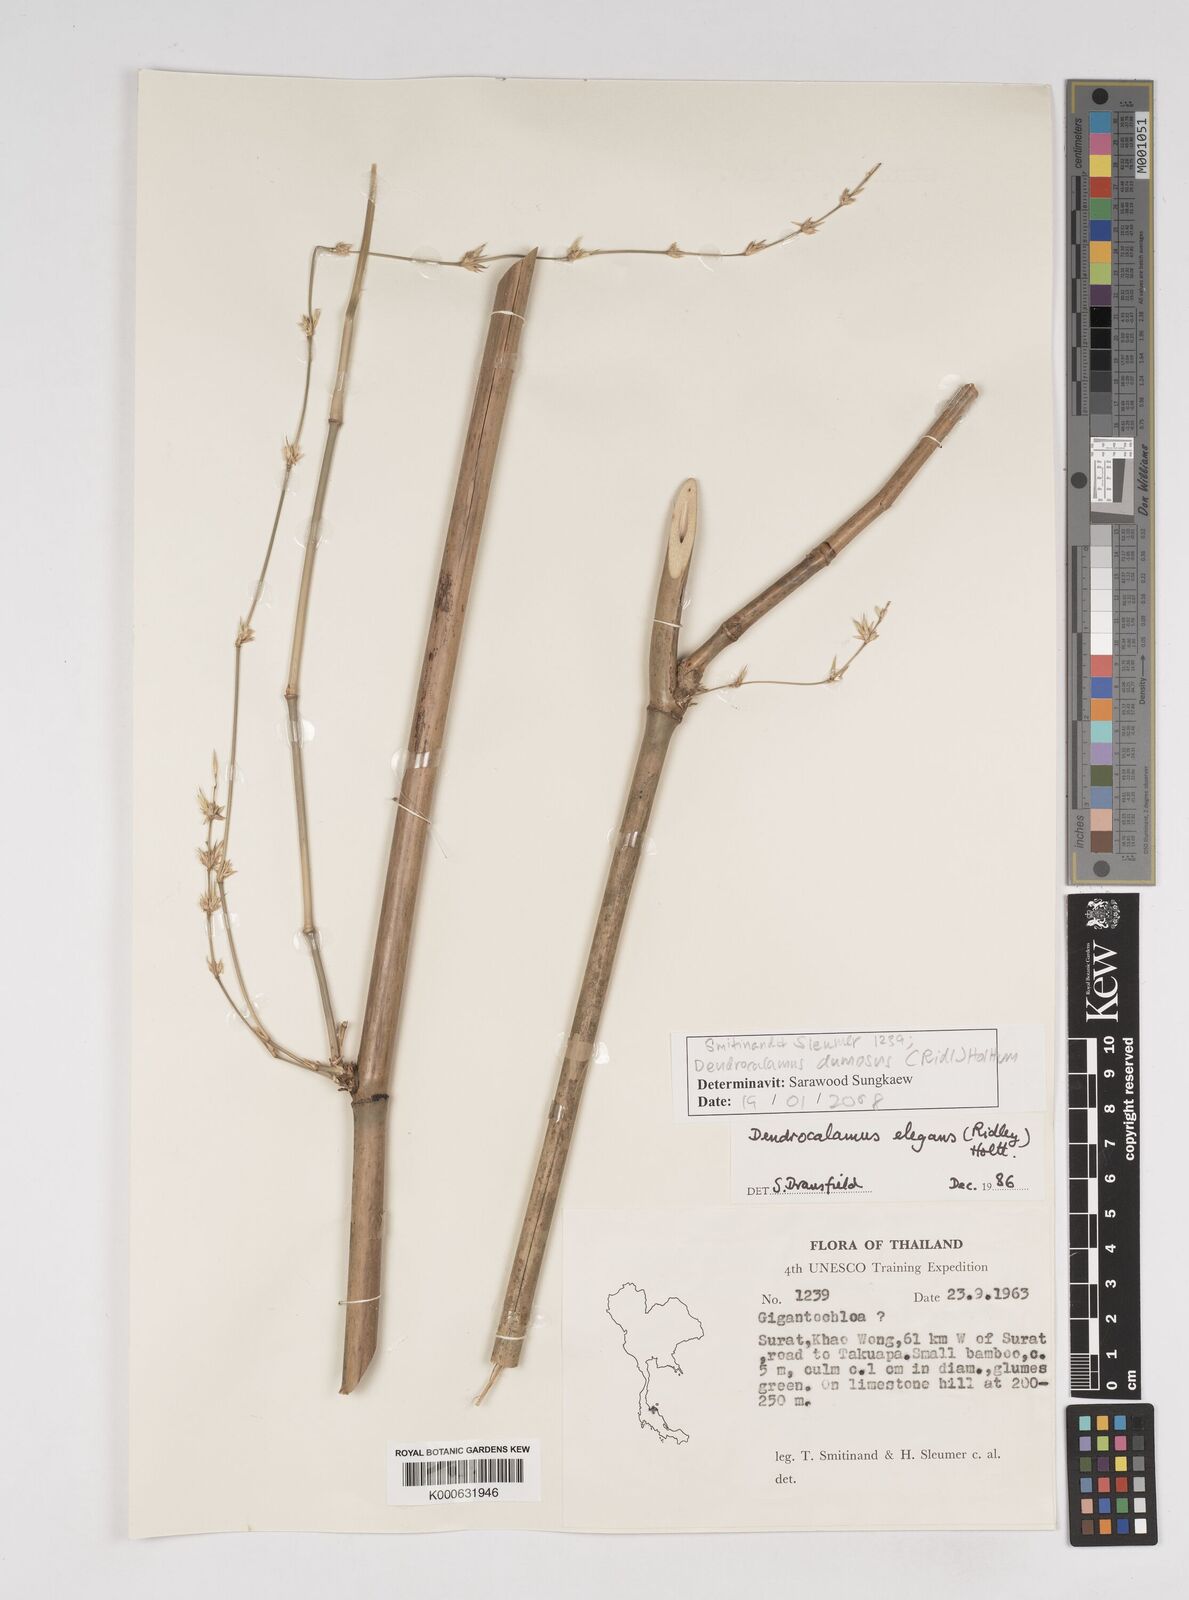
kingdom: Plantae
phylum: Tracheophyta
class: Liliopsida
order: Poales
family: Poaceae
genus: Dendrocalamus
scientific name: Dendrocalamus brandisii
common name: Velvetleaf bamboo
